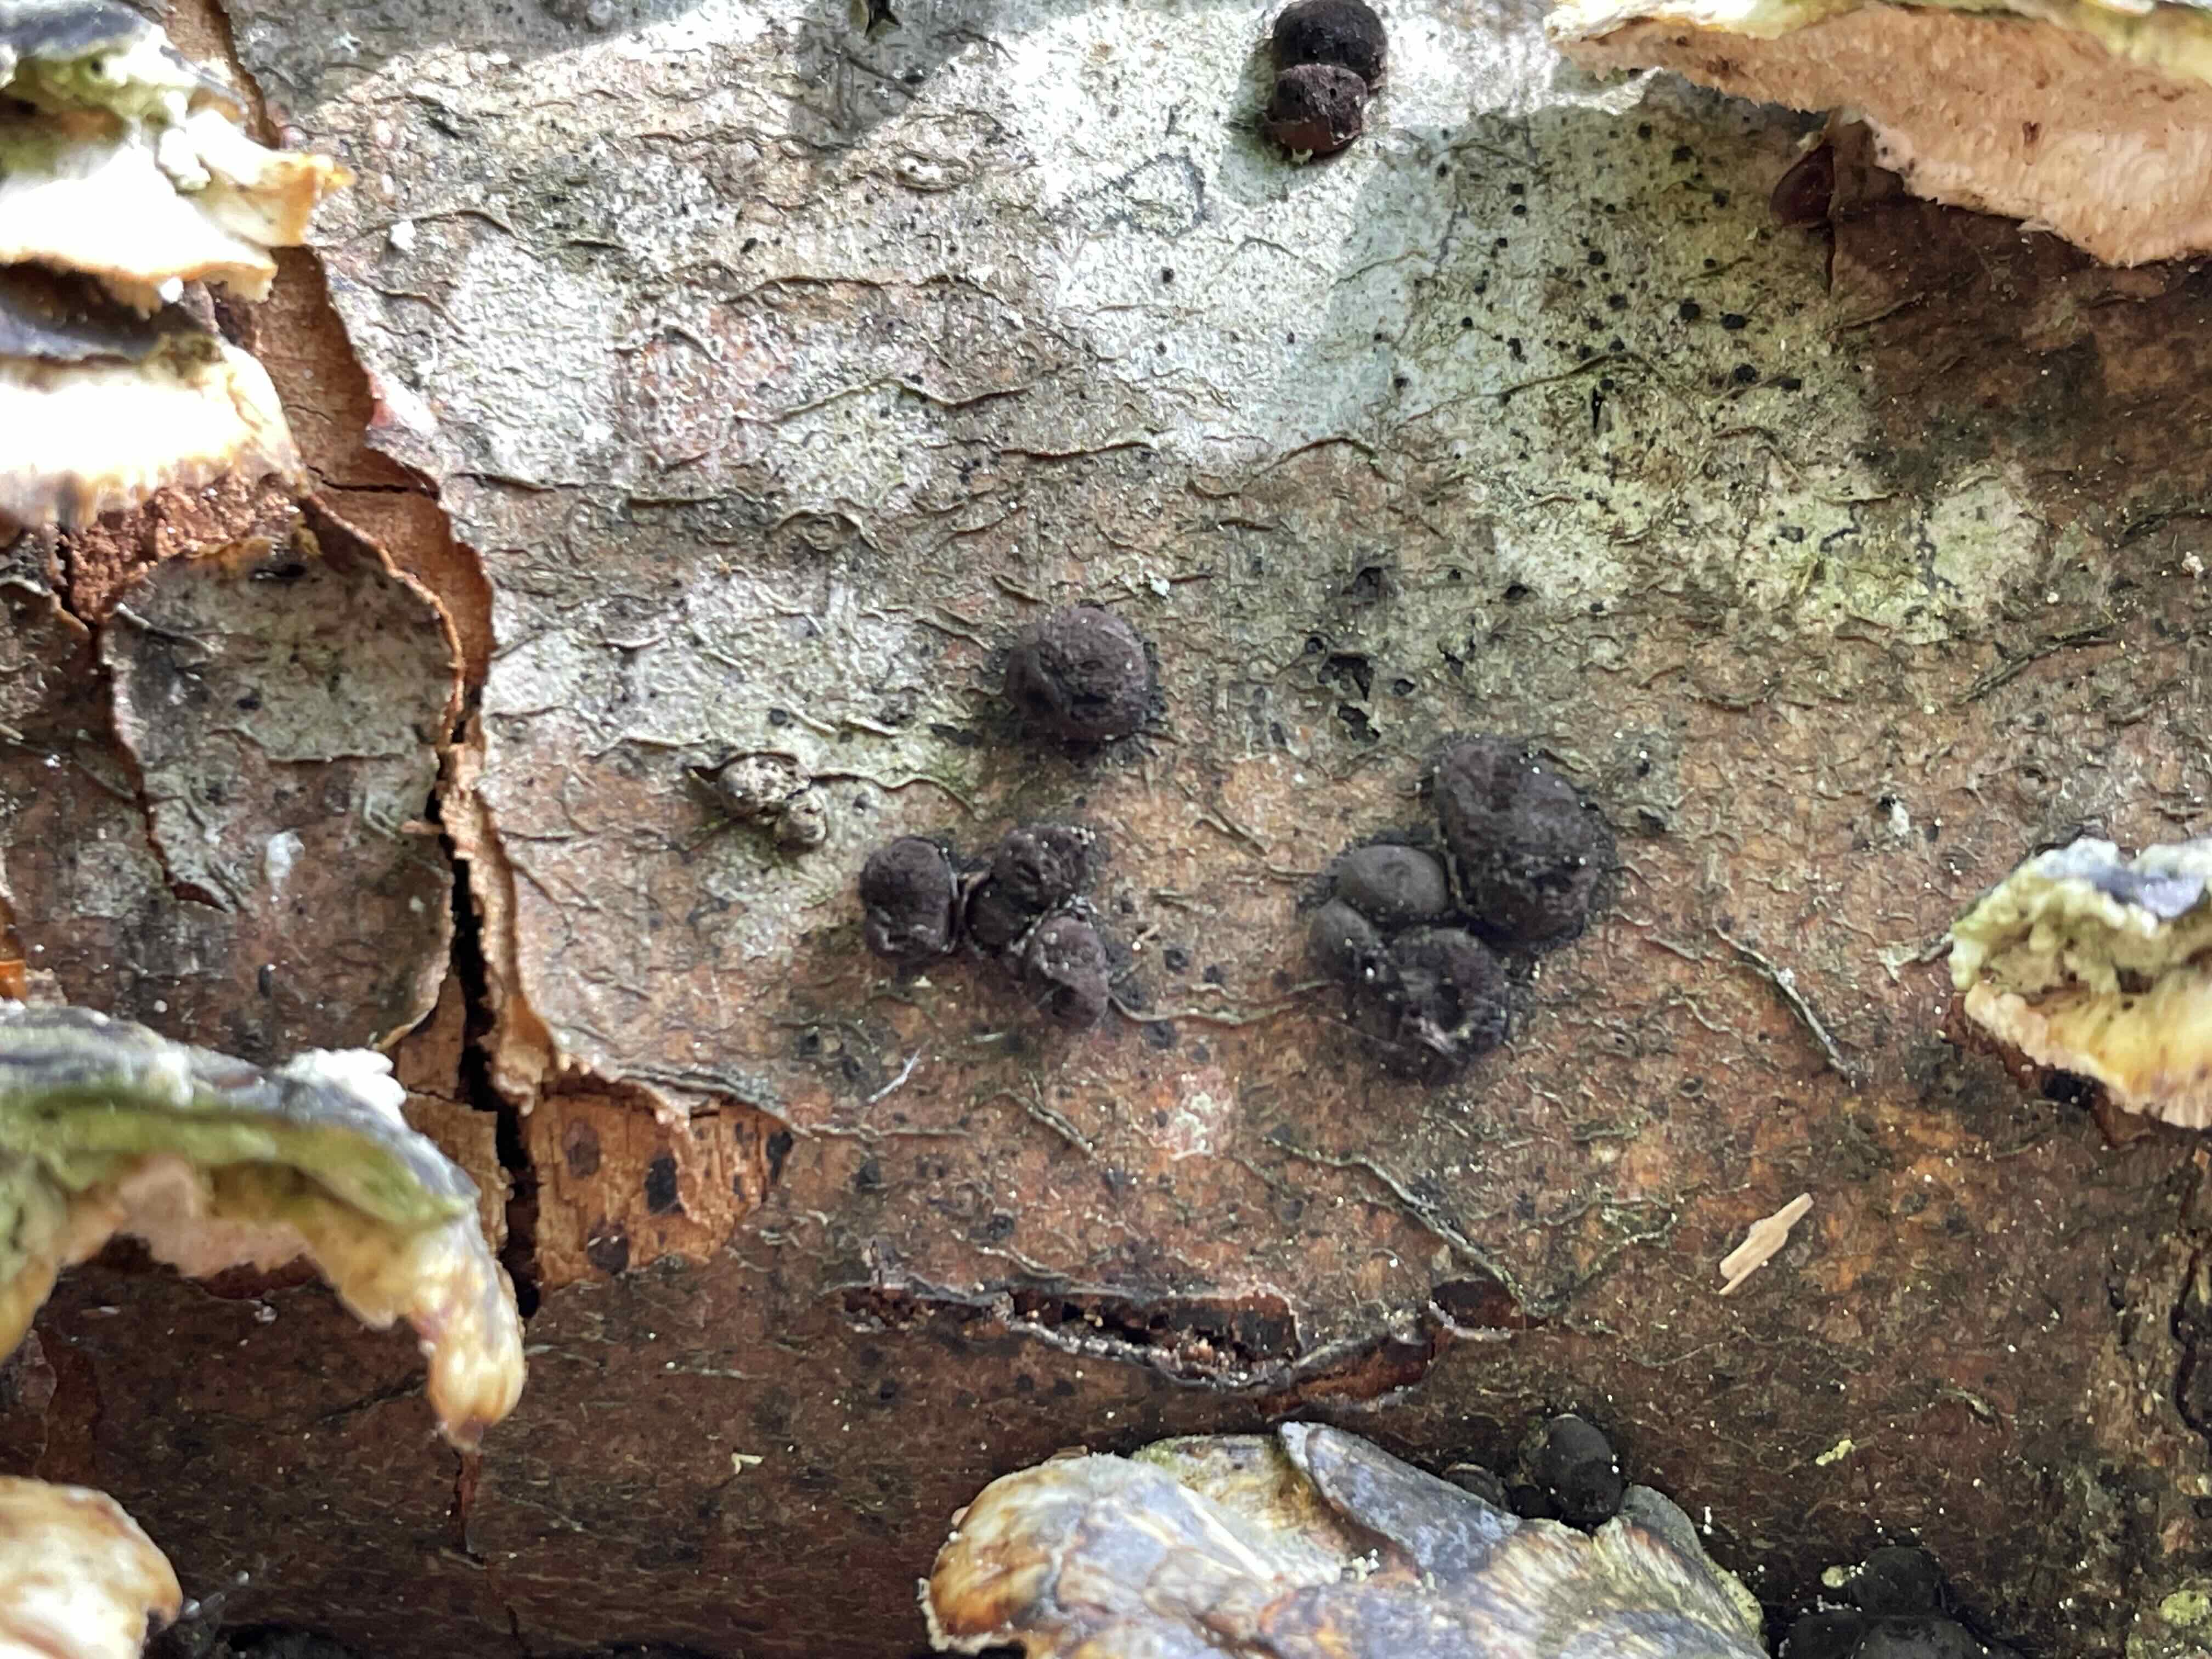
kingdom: Fungi
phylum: Ascomycota
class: Sordariomycetes
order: Xylariales
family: Hypoxylaceae
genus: Hypoxylon
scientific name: Hypoxylon fragiforme
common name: kuljordbær
